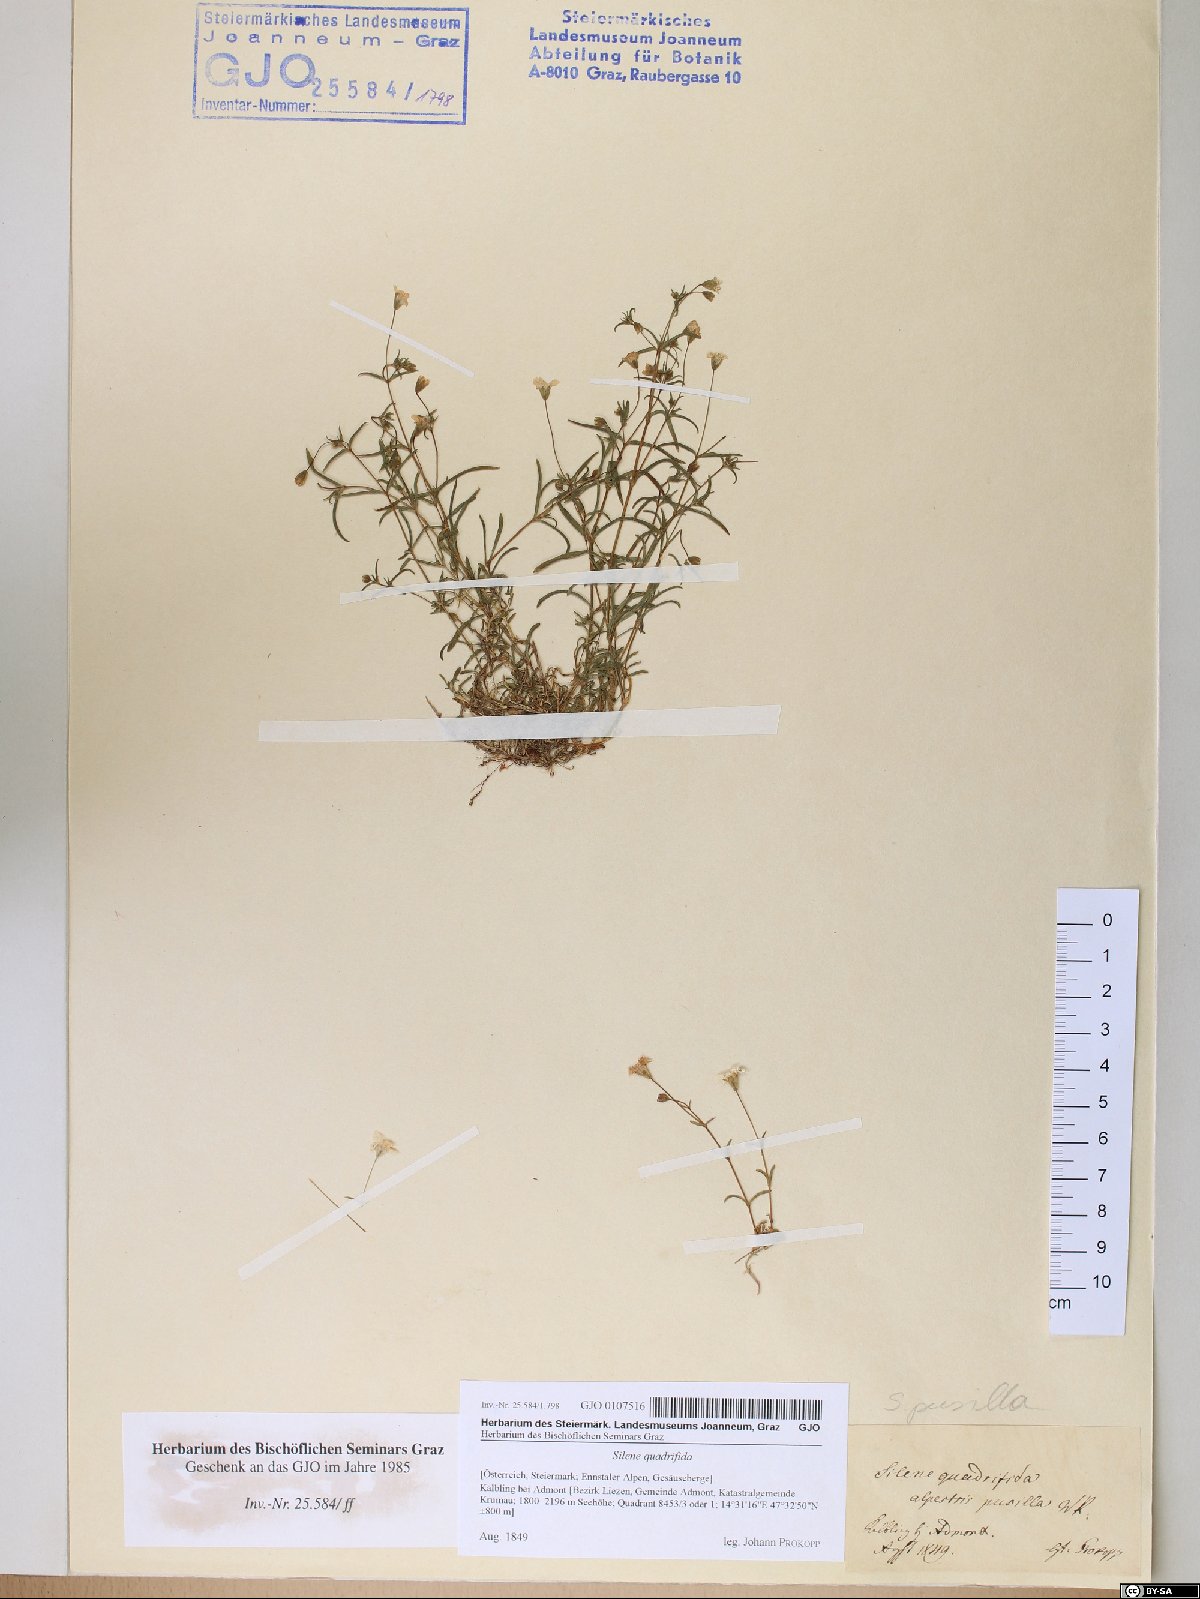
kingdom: Plantae
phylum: Tracheophyta
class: Magnoliopsida
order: Caryophyllales
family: Caryophyllaceae
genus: Heliosperma
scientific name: Heliosperma alpestre
